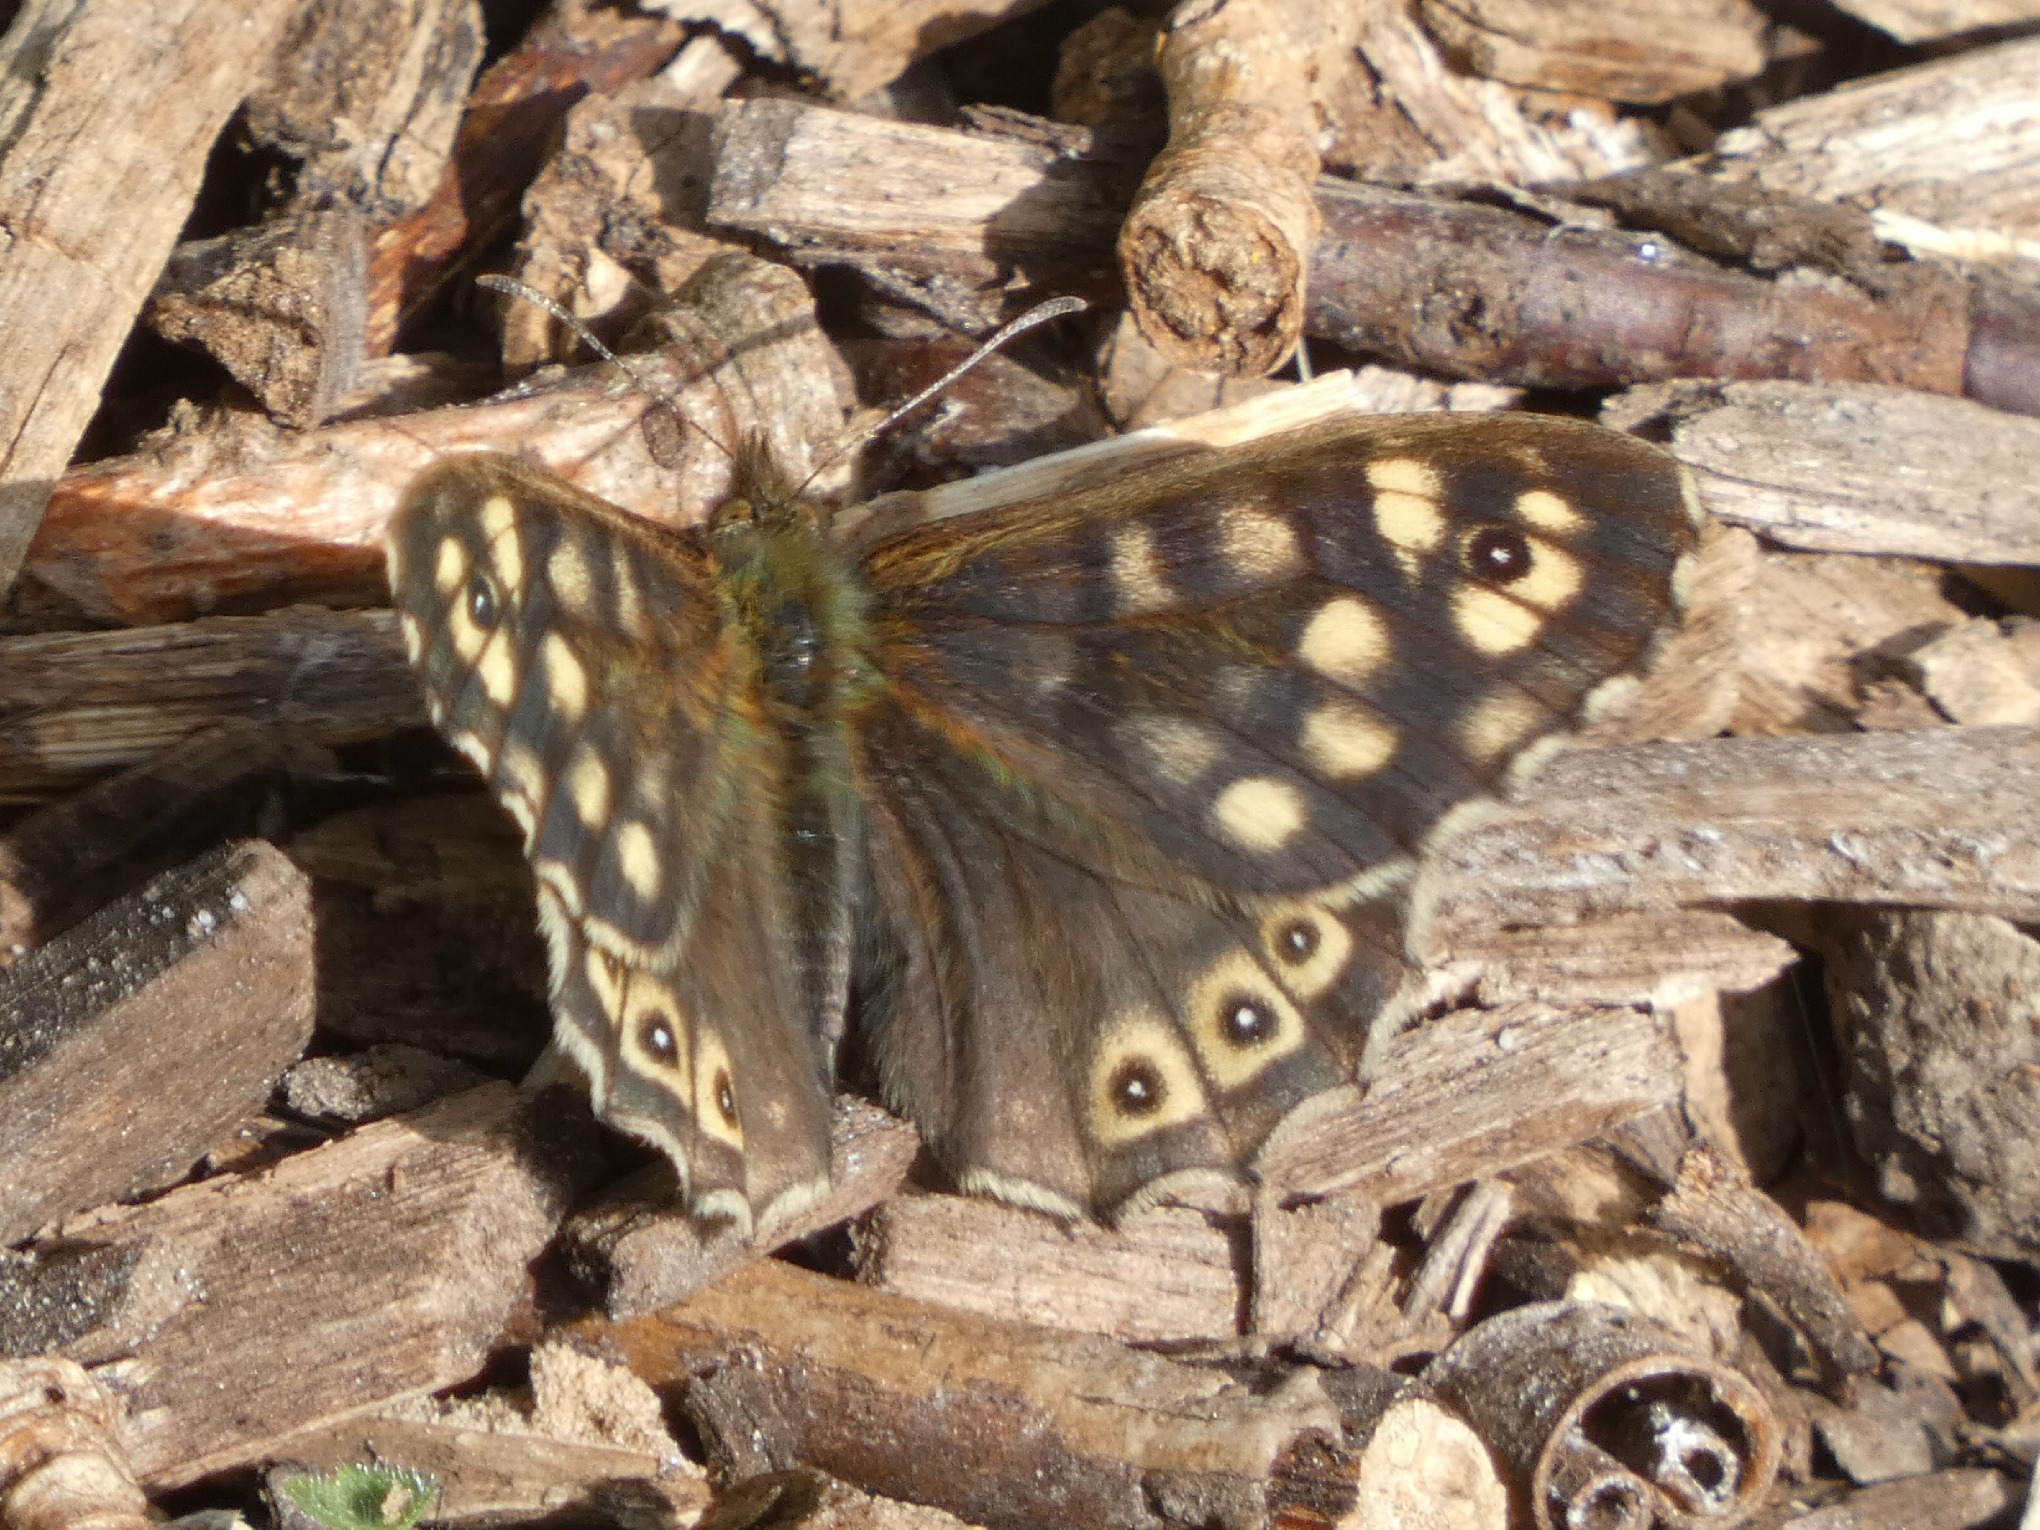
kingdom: Animalia
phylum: Arthropoda
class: Insecta
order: Lepidoptera
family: Nymphalidae
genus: Pararge
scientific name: Pararge aegeria
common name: Skovrandøje
